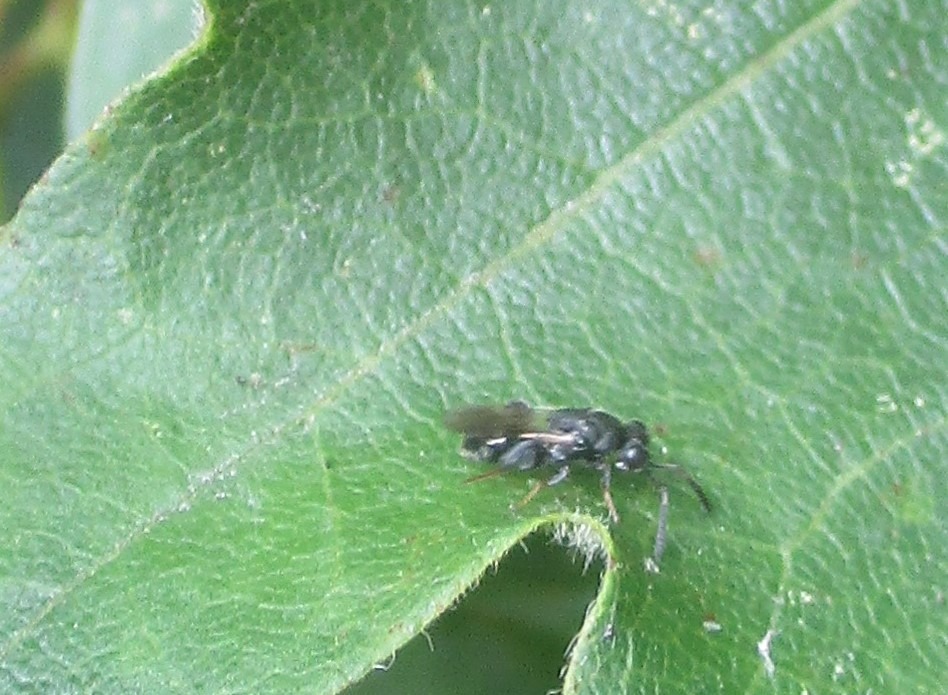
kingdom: Animalia
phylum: Arthropoda
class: Insecta
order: Hymenoptera
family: Chalcididae
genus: Haltichella
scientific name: Haltichella rufipes
